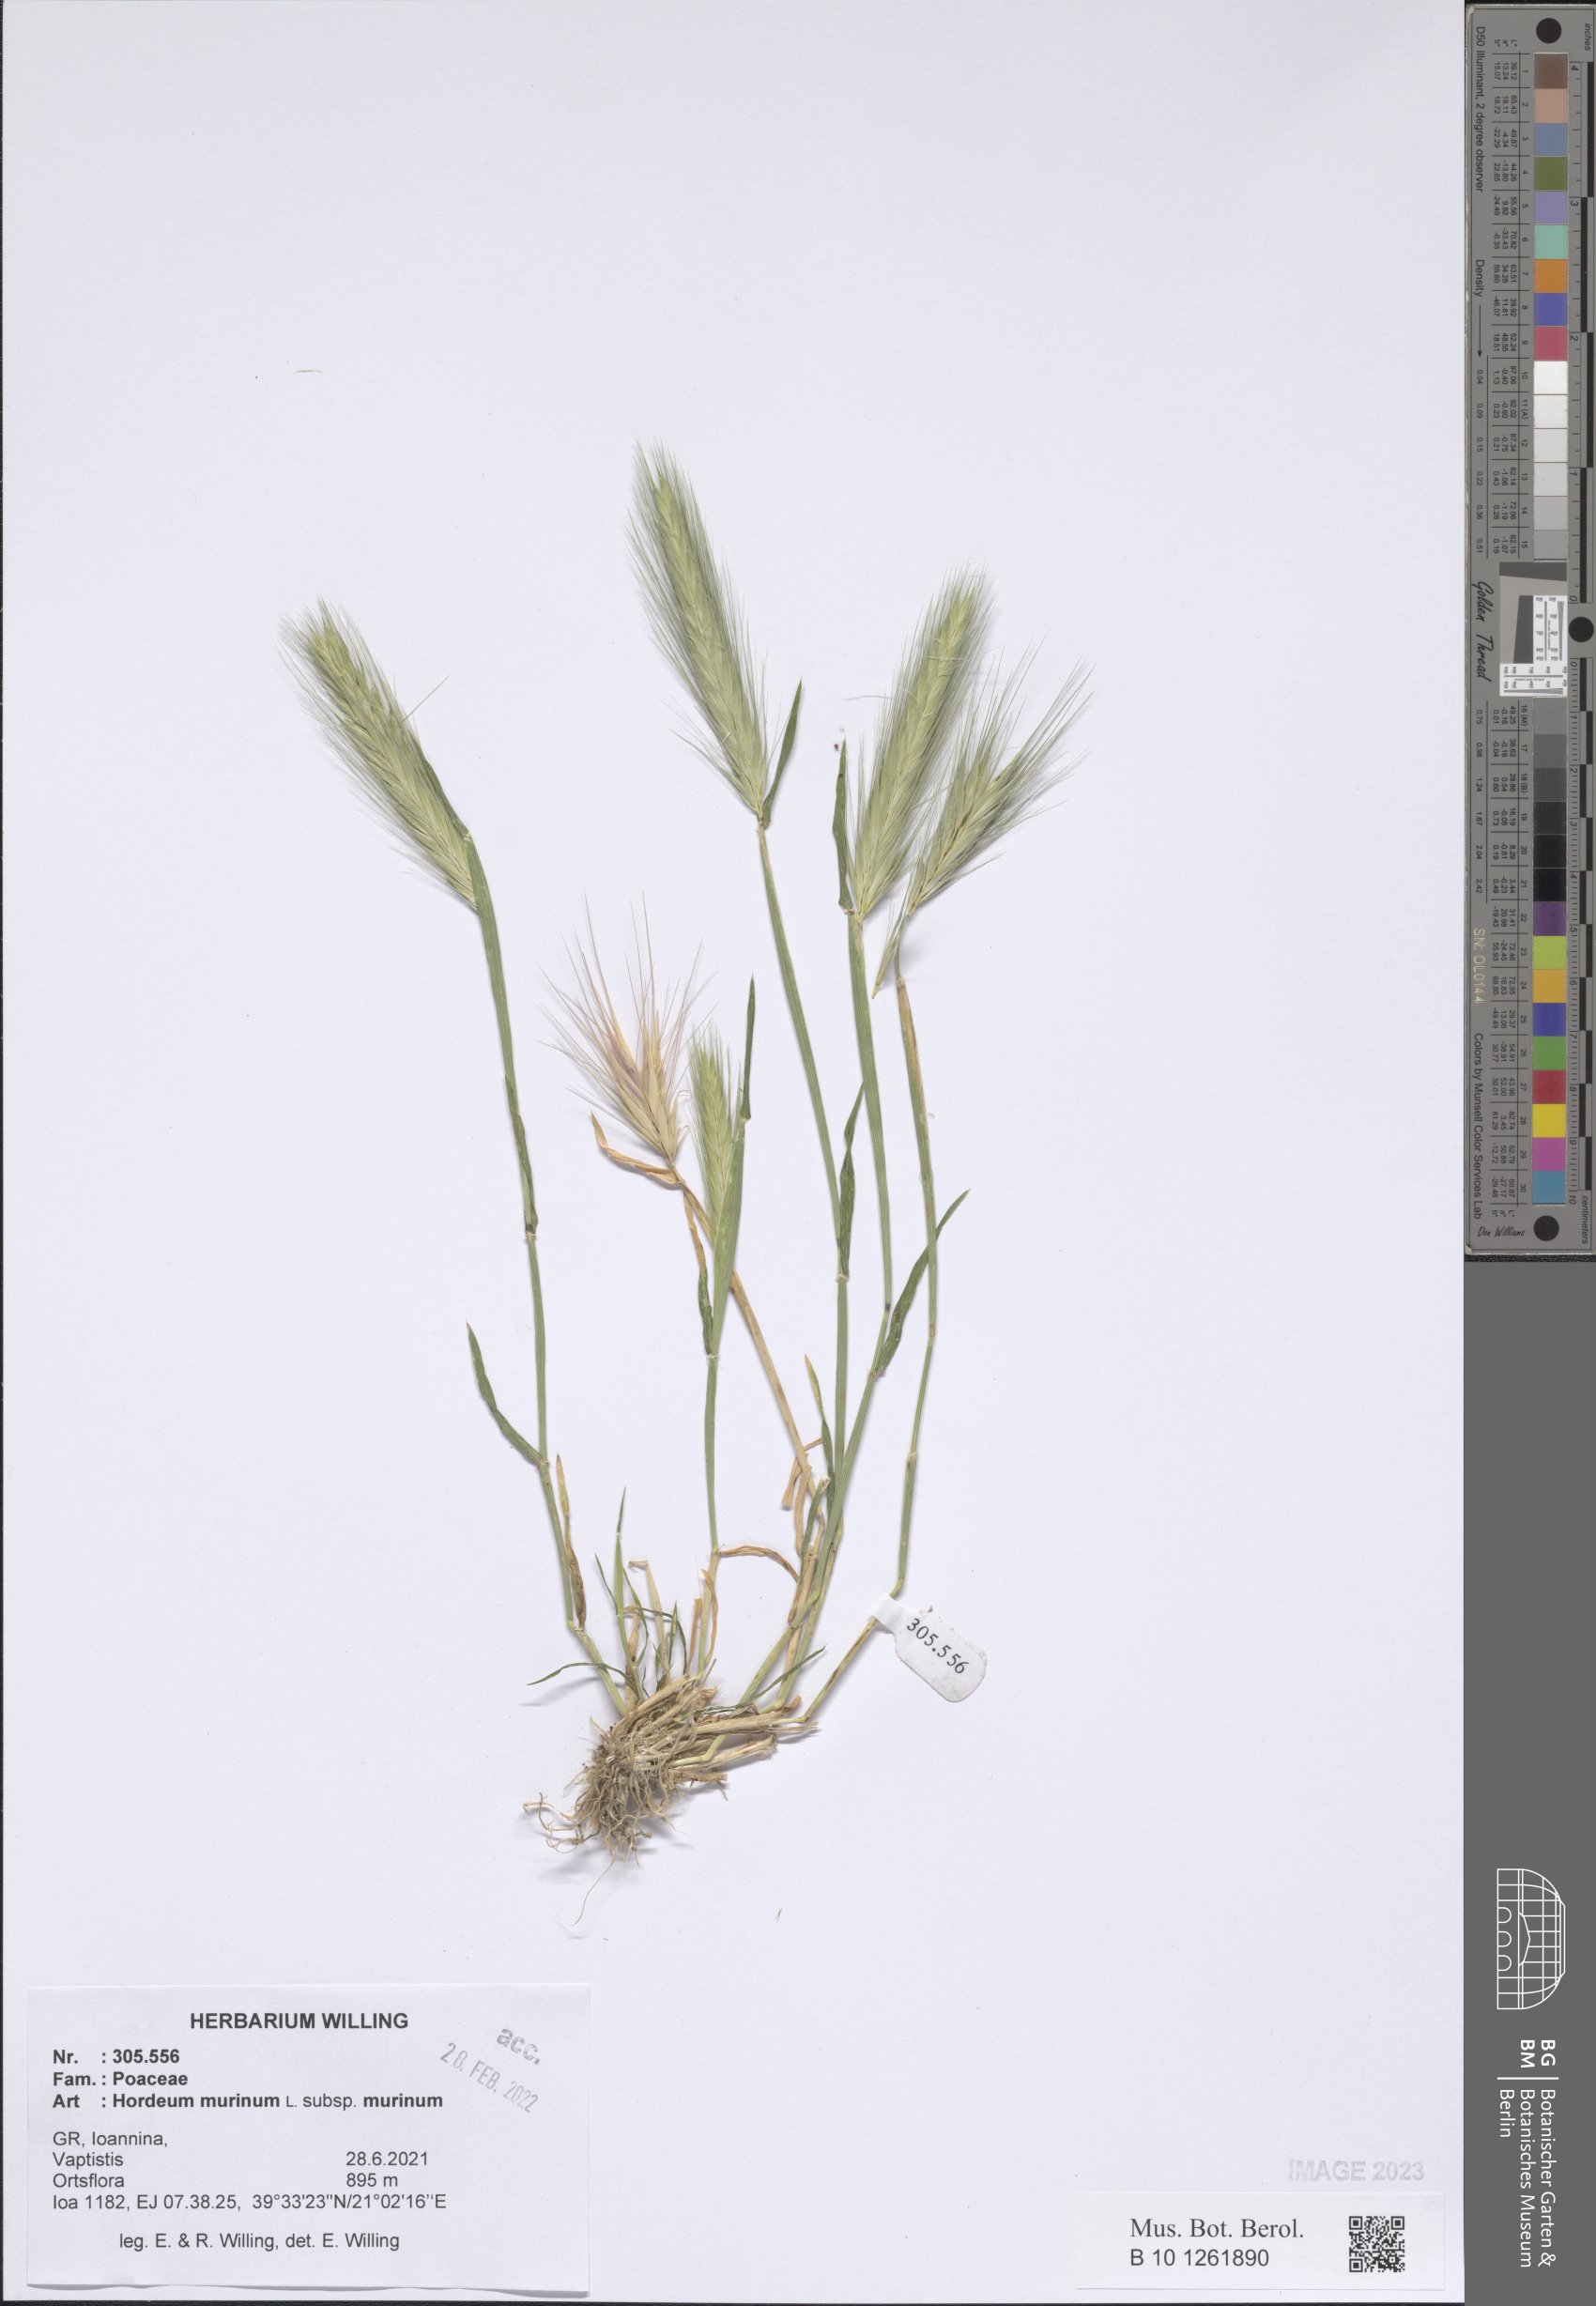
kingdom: Plantae
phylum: Tracheophyta
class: Liliopsida
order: Poales
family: Poaceae
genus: Hordeum
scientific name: Hordeum murinum
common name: Wall barley
